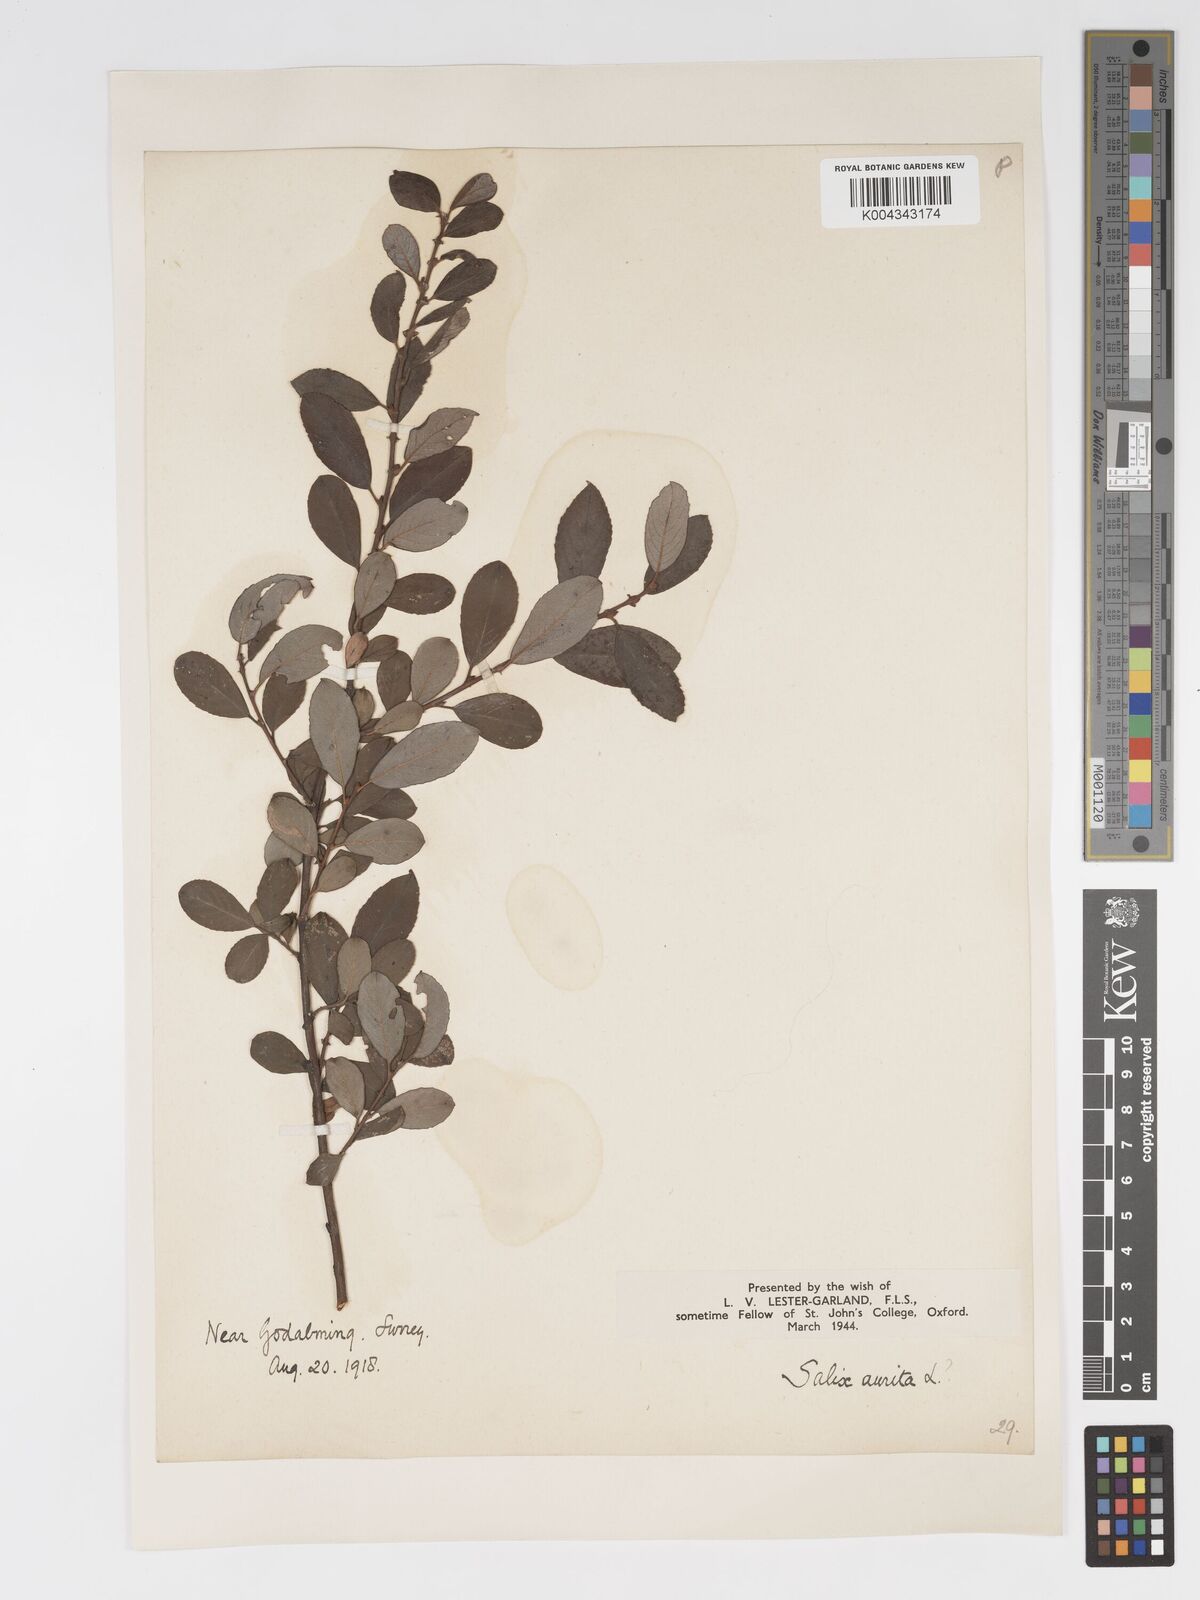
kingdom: Plantae
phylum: Tracheophyta
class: Magnoliopsida
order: Malpighiales
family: Salicaceae
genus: Salix
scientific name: Salix aurita
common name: Eared willow
